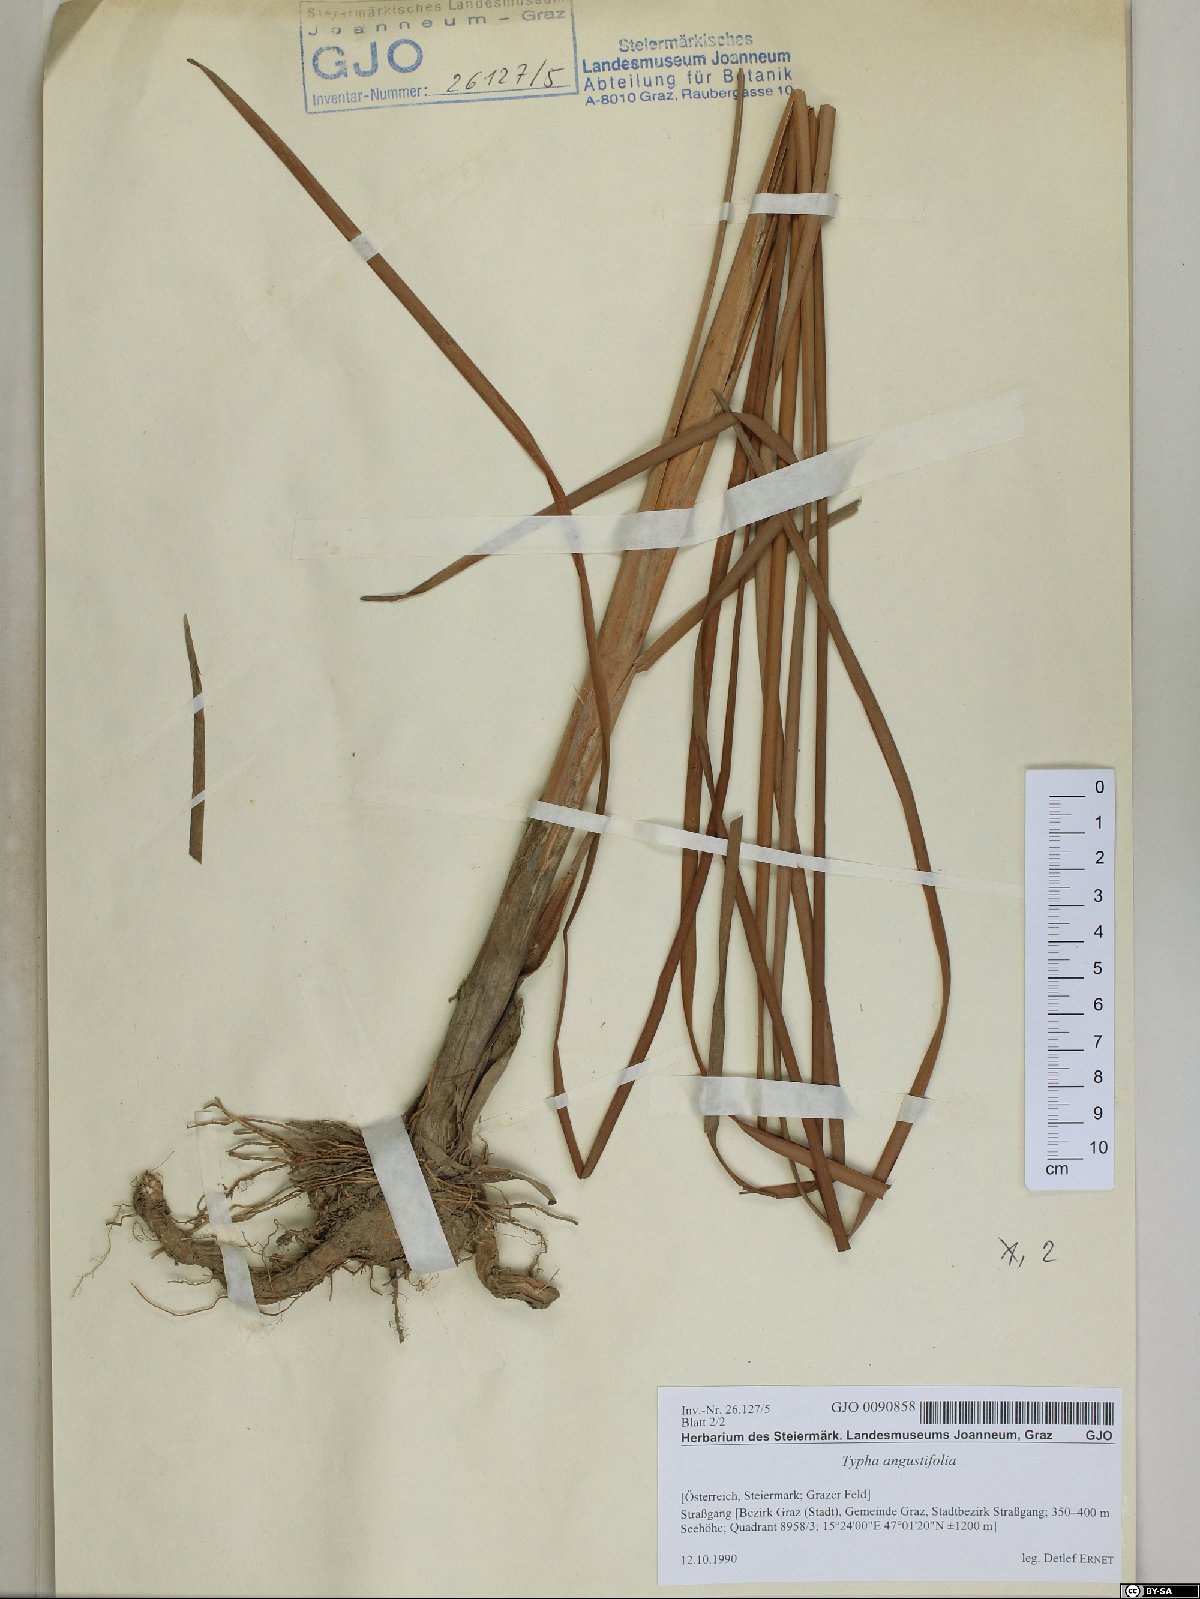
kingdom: Plantae
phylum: Tracheophyta
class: Liliopsida
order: Poales
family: Typhaceae
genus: Typha
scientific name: Typha angustifolia
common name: Lesser bulrush
